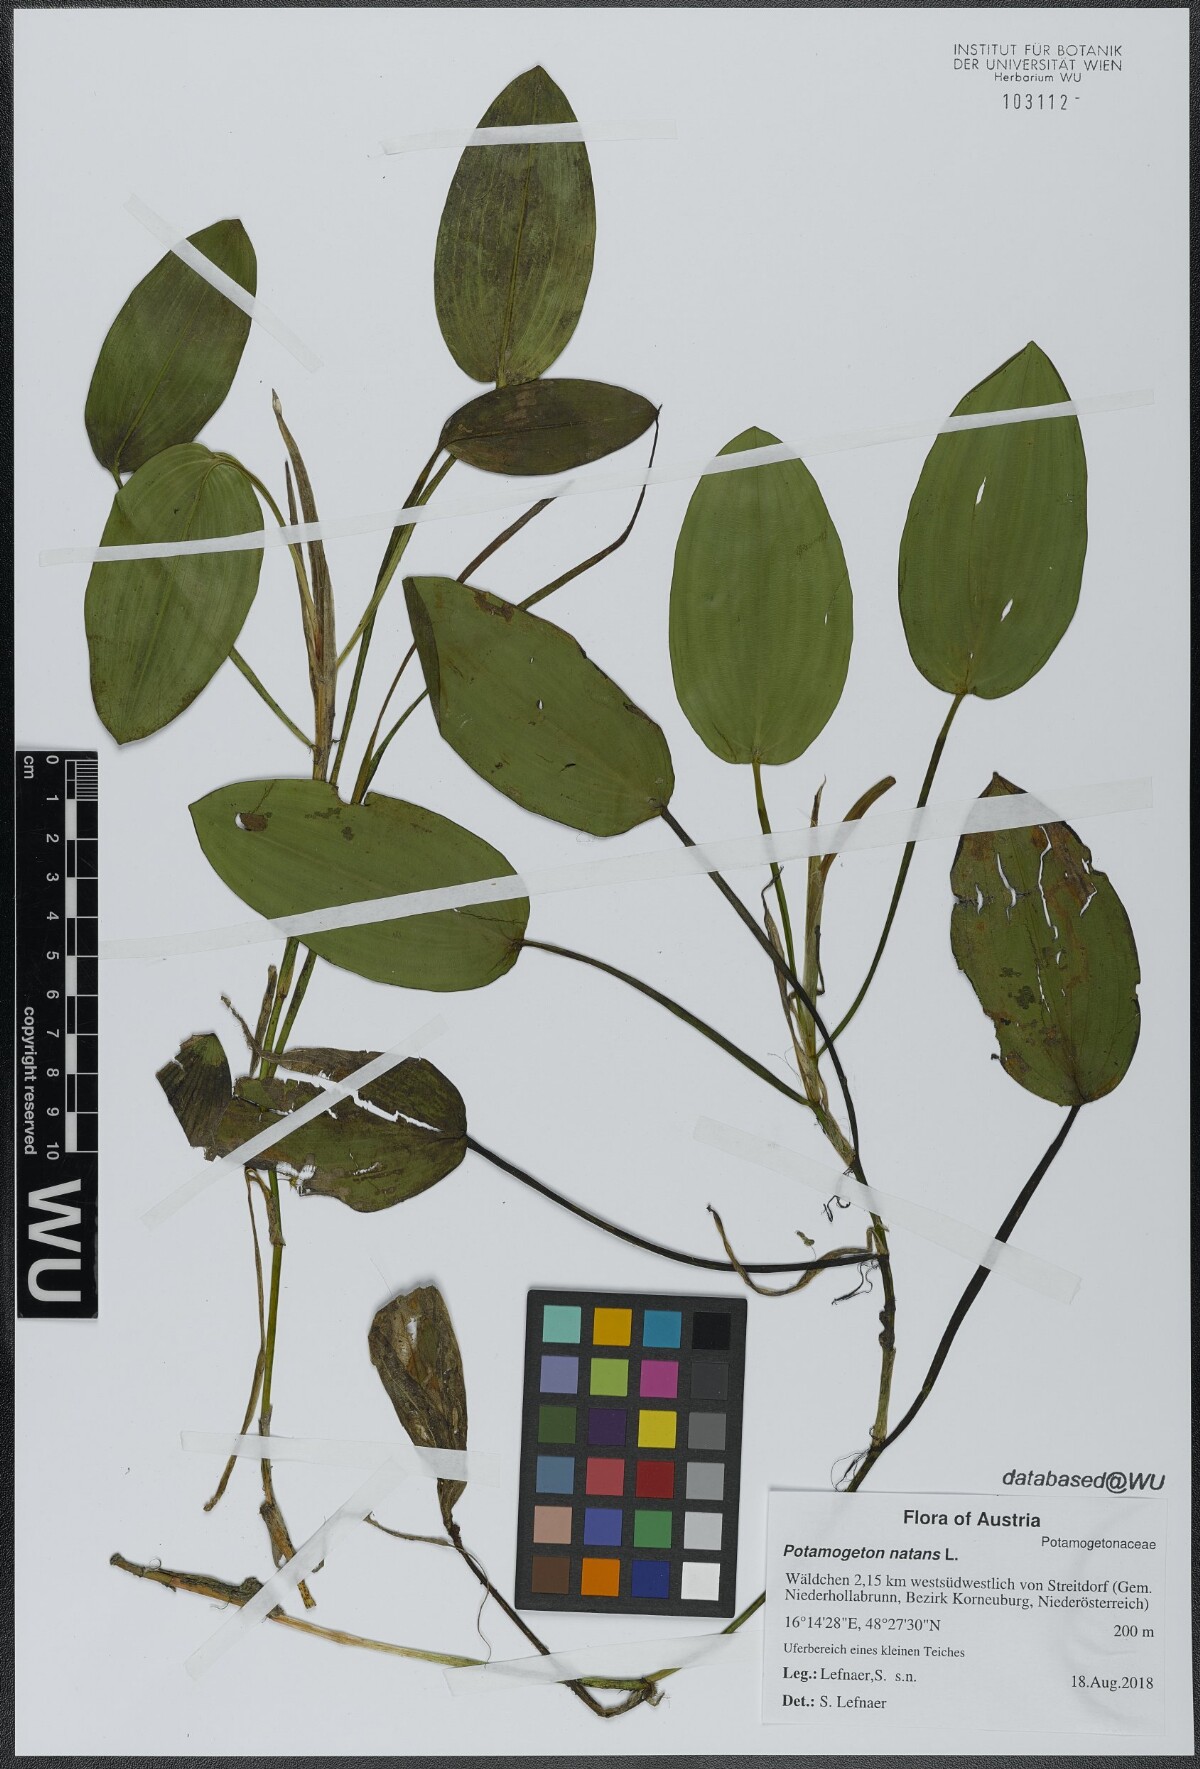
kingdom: Plantae
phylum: Tracheophyta
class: Liliopsida
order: Alismatales
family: Potamogetonaceae
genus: Potamogeton
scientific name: Potamogeton natans
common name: Broad-leaved pondweed
